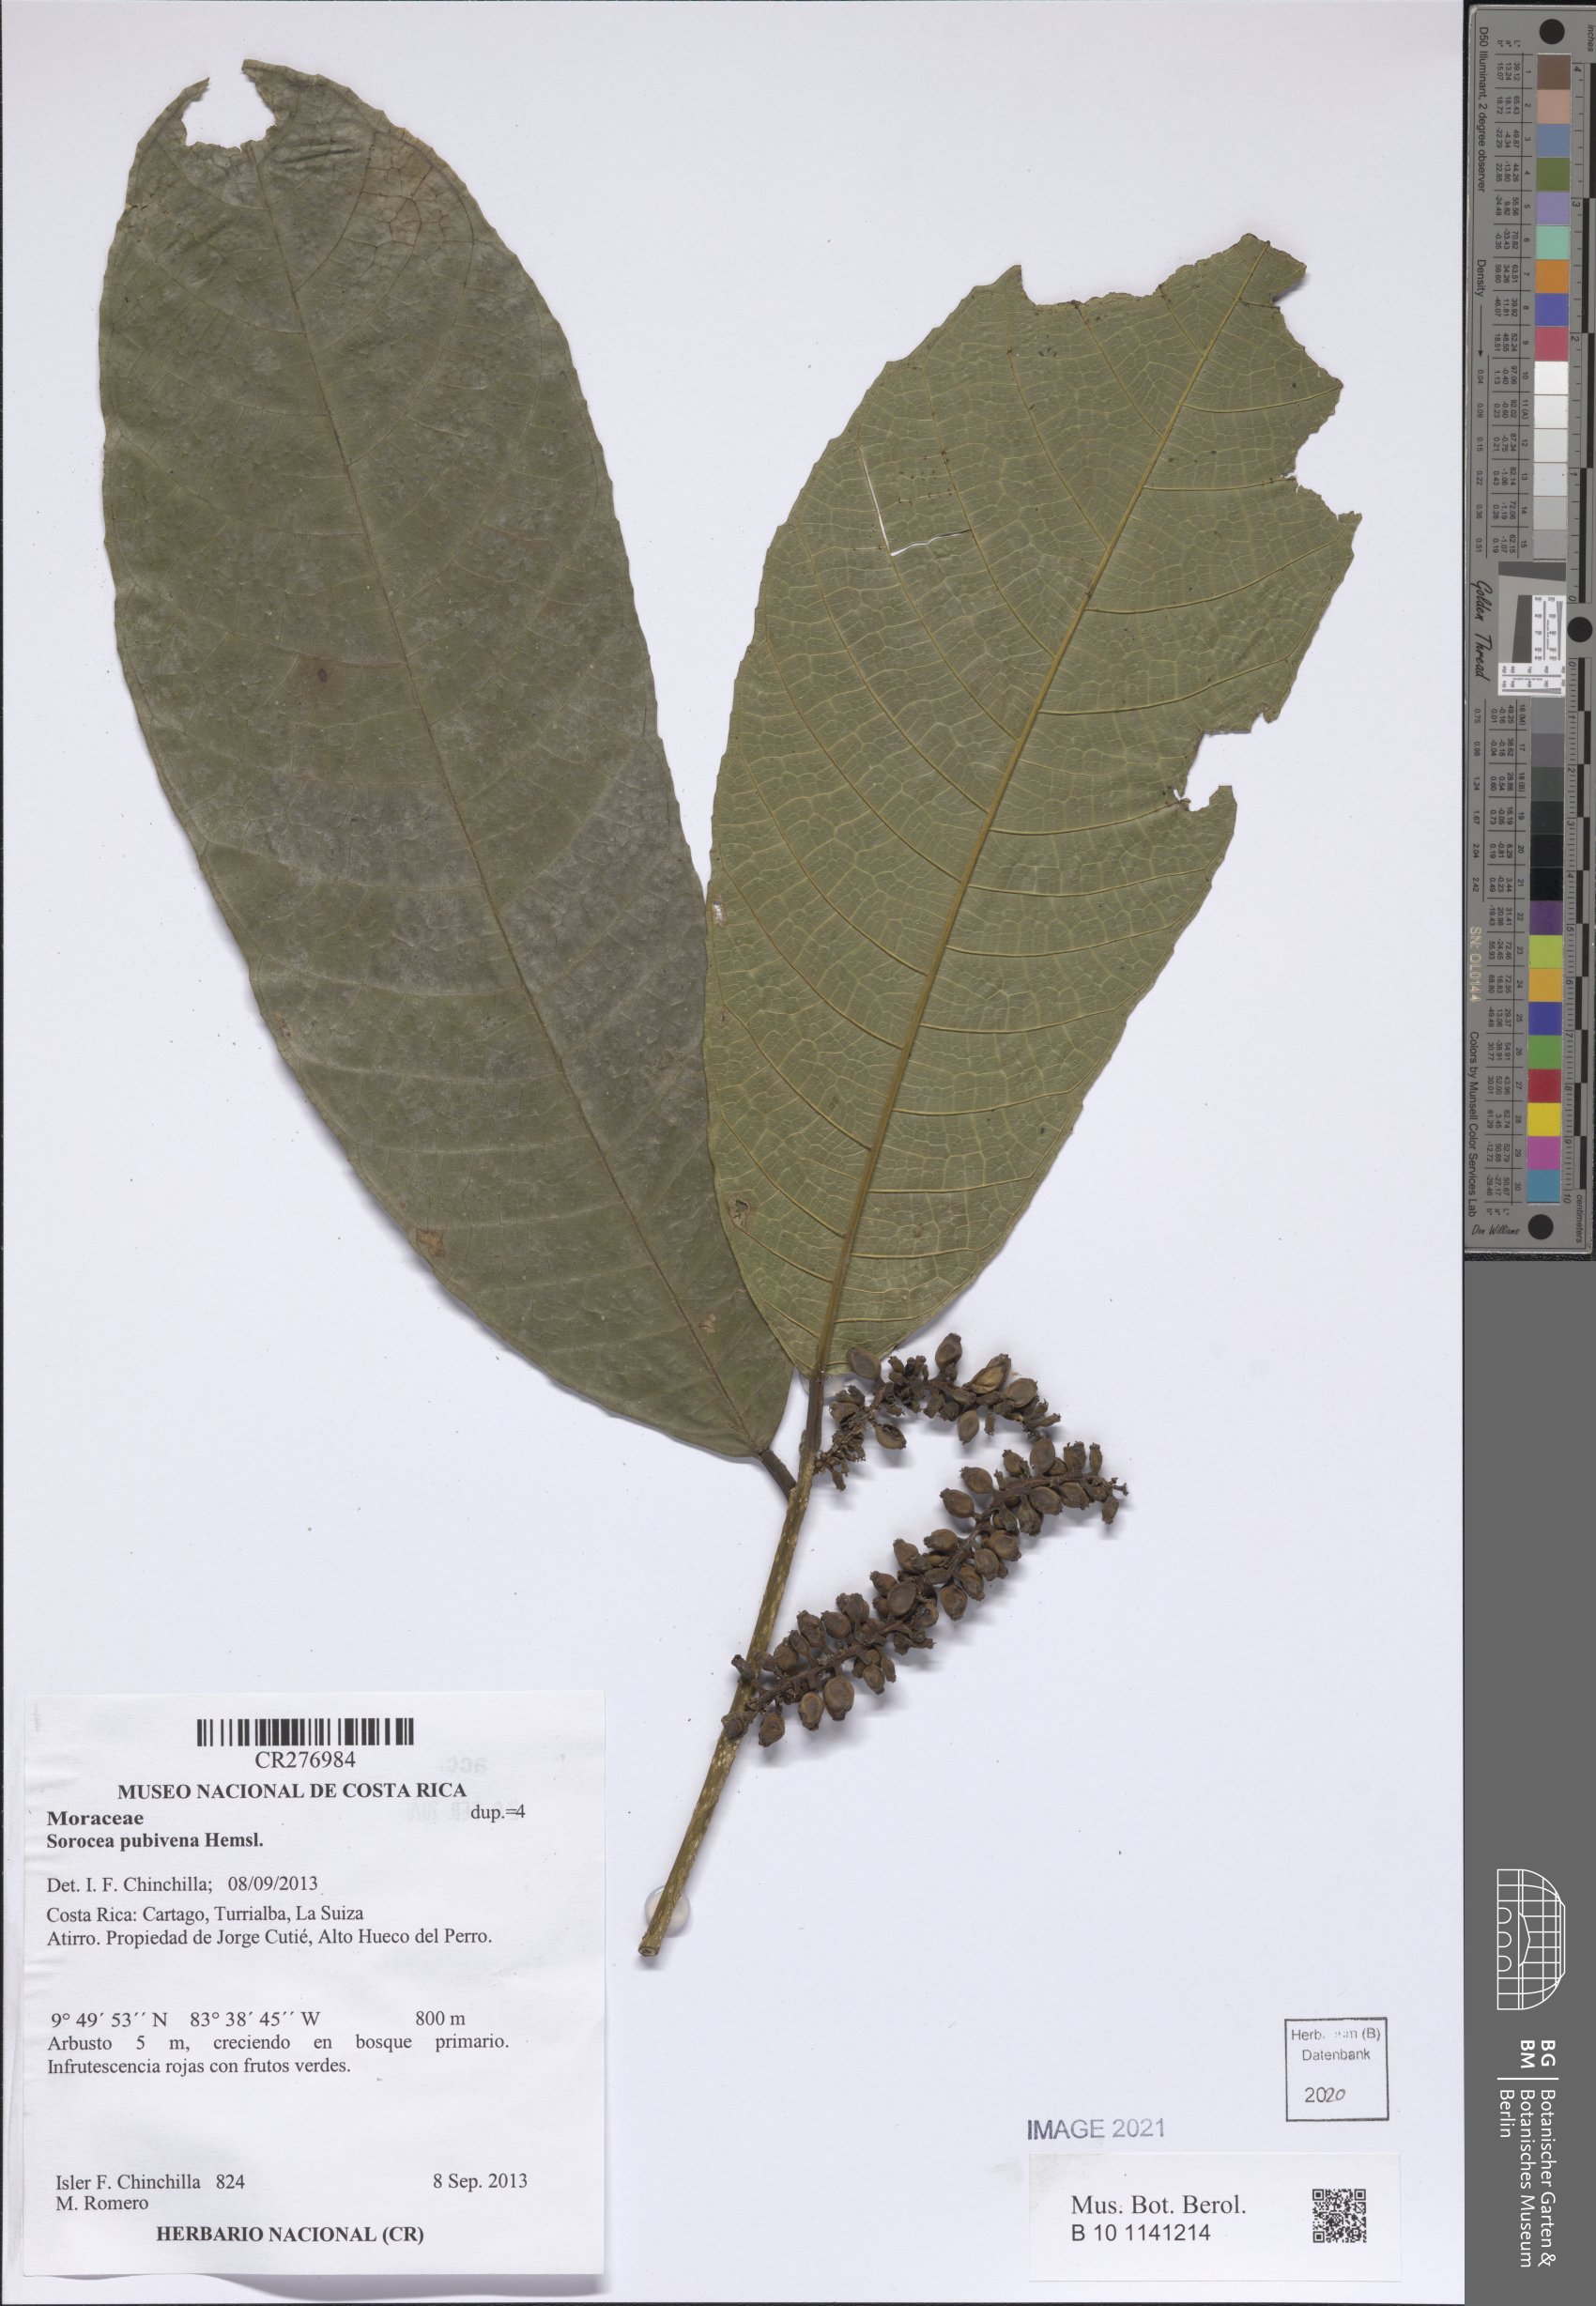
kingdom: Plantae
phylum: Tracheophyta
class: Magnoliopsida
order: Rosales
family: Moraceae
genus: Sorocea
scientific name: Sorocea pubivena
